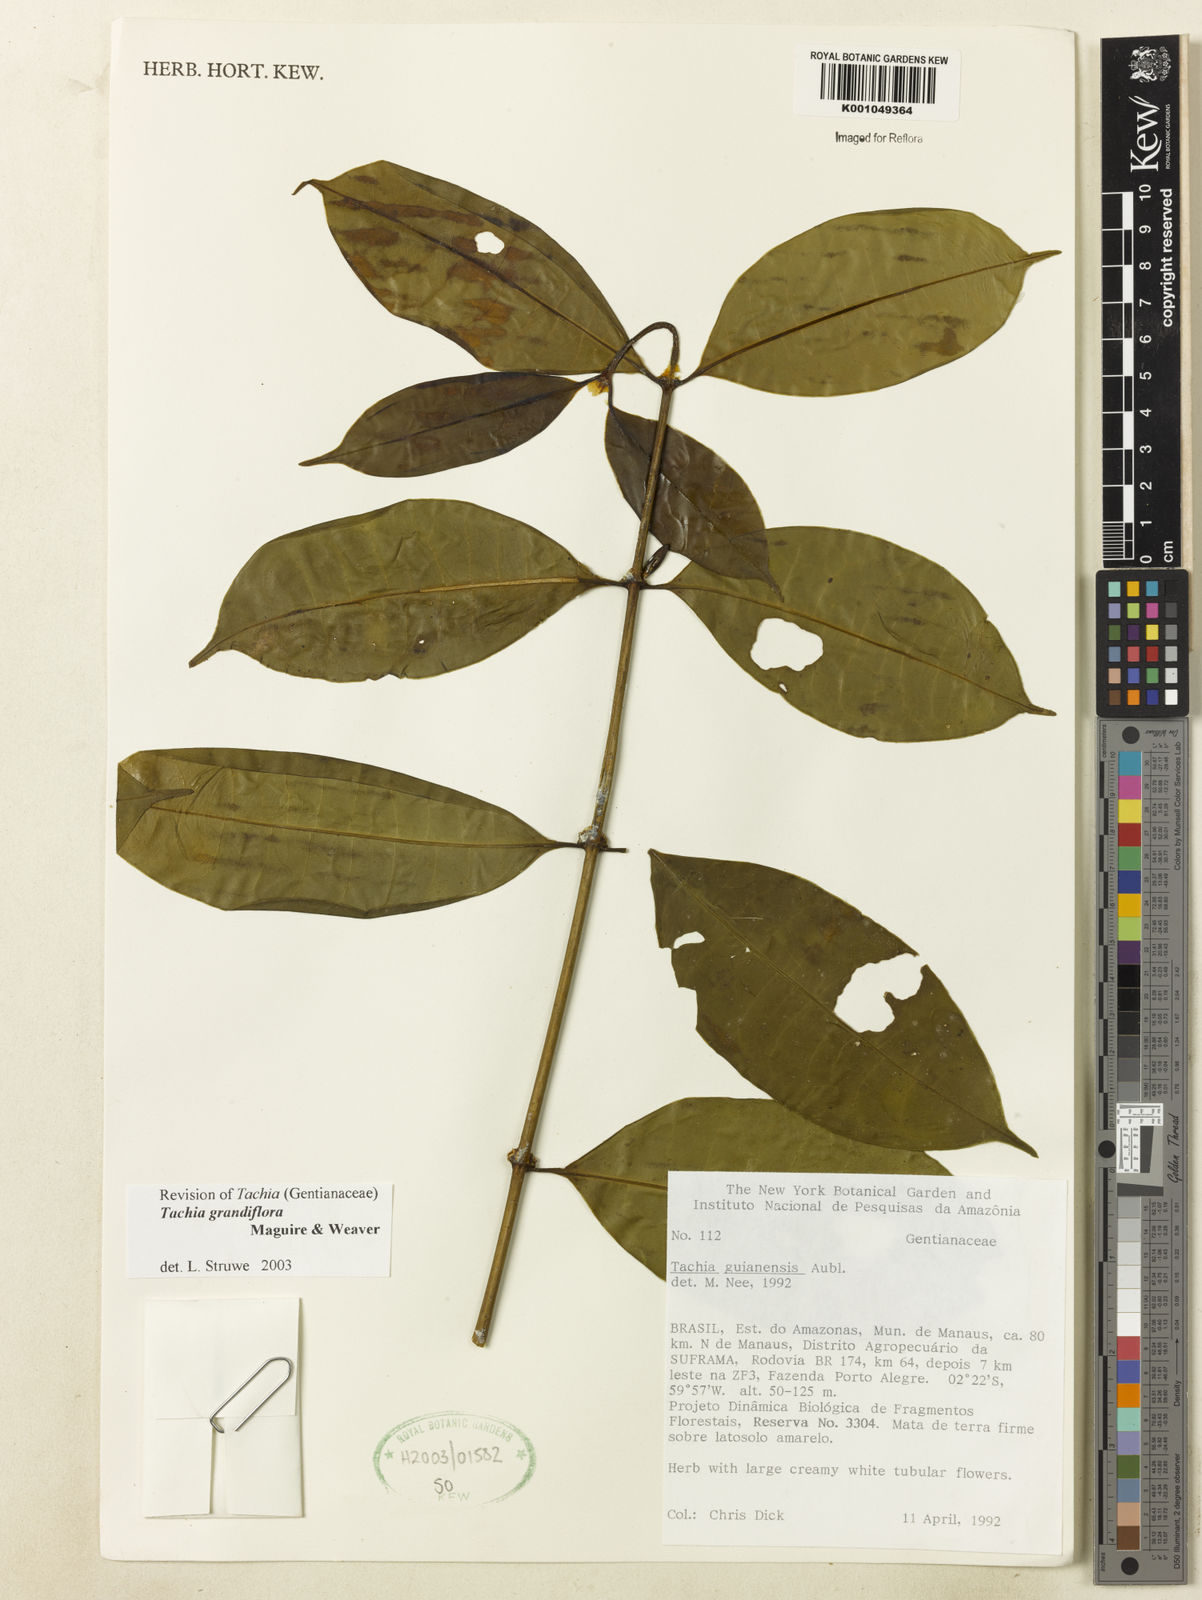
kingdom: Plantae
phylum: Tracheophyta
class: Magnoliopsida
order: Gentianales
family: Gentianaceae
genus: Tachia
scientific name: Tachia grandiflora
